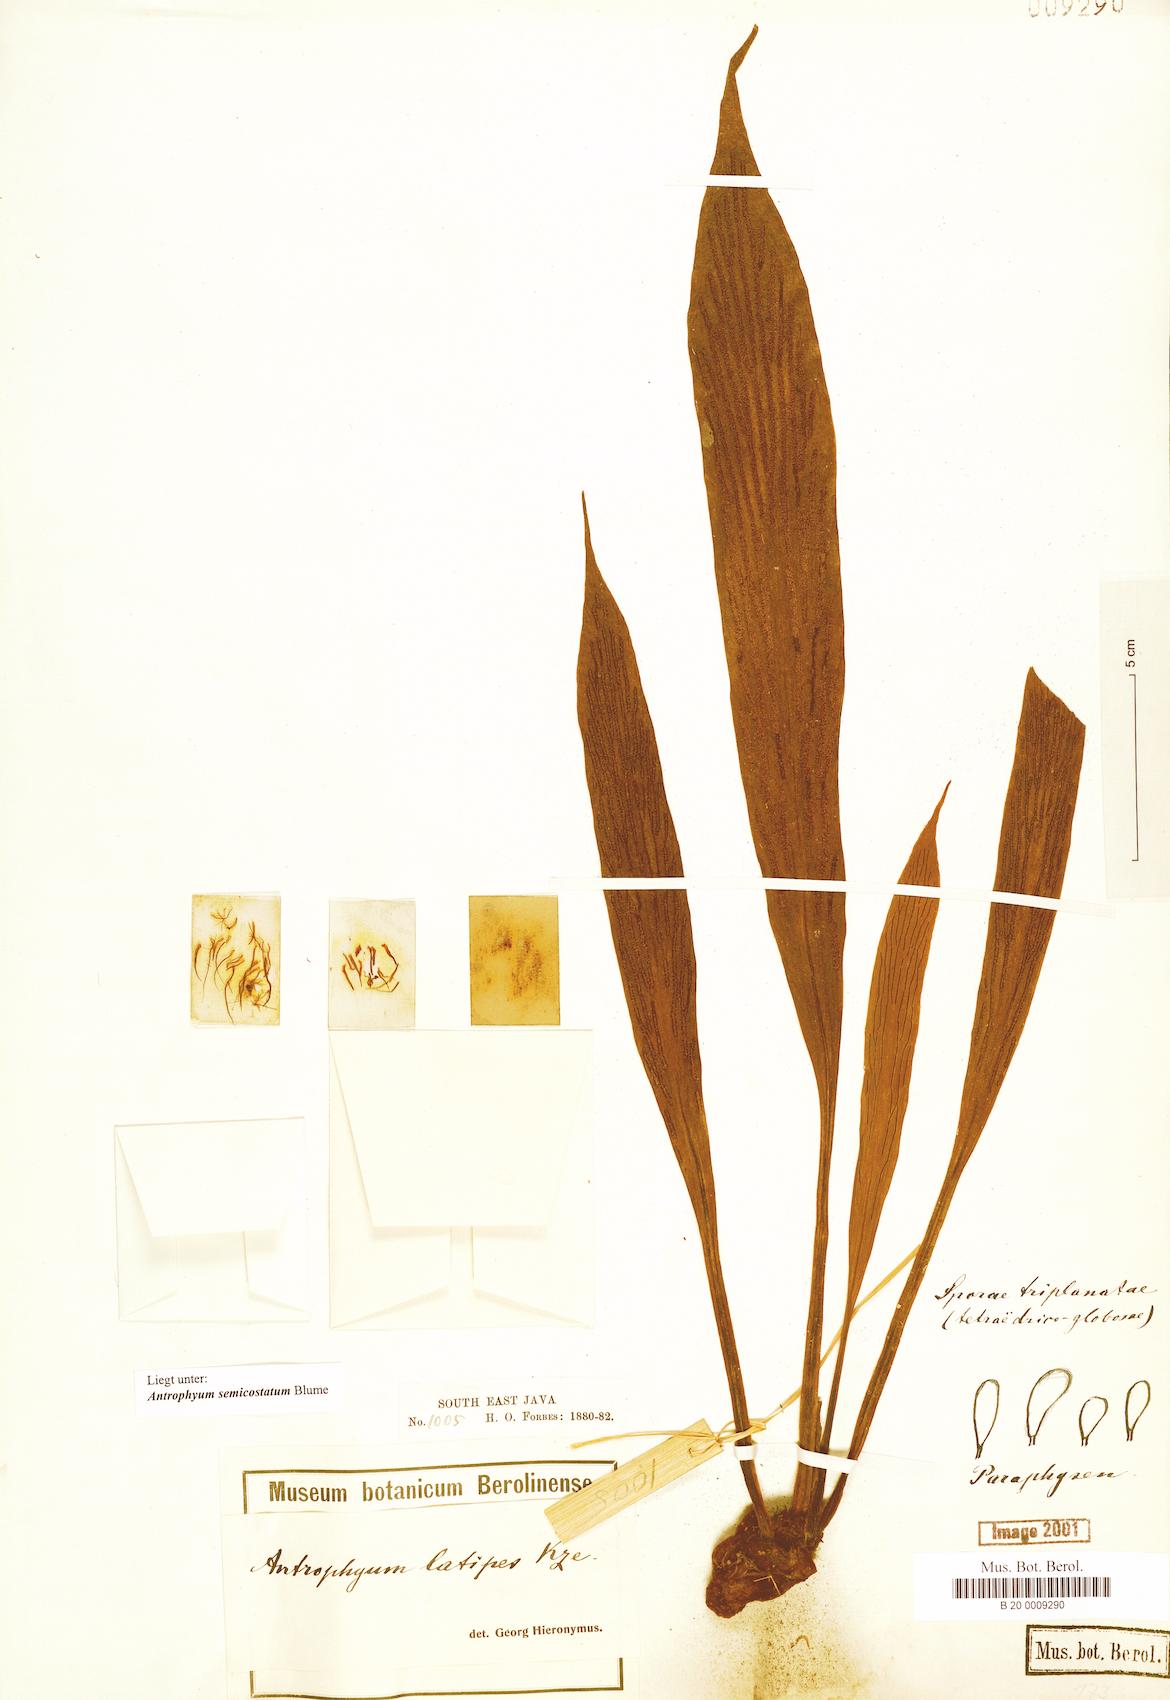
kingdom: Plantae
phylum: Tracheophyta
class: Polypodiopsida
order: Polypodiales
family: Pteridaceae
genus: Antrophyum
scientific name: Antrophyum semicostatum
